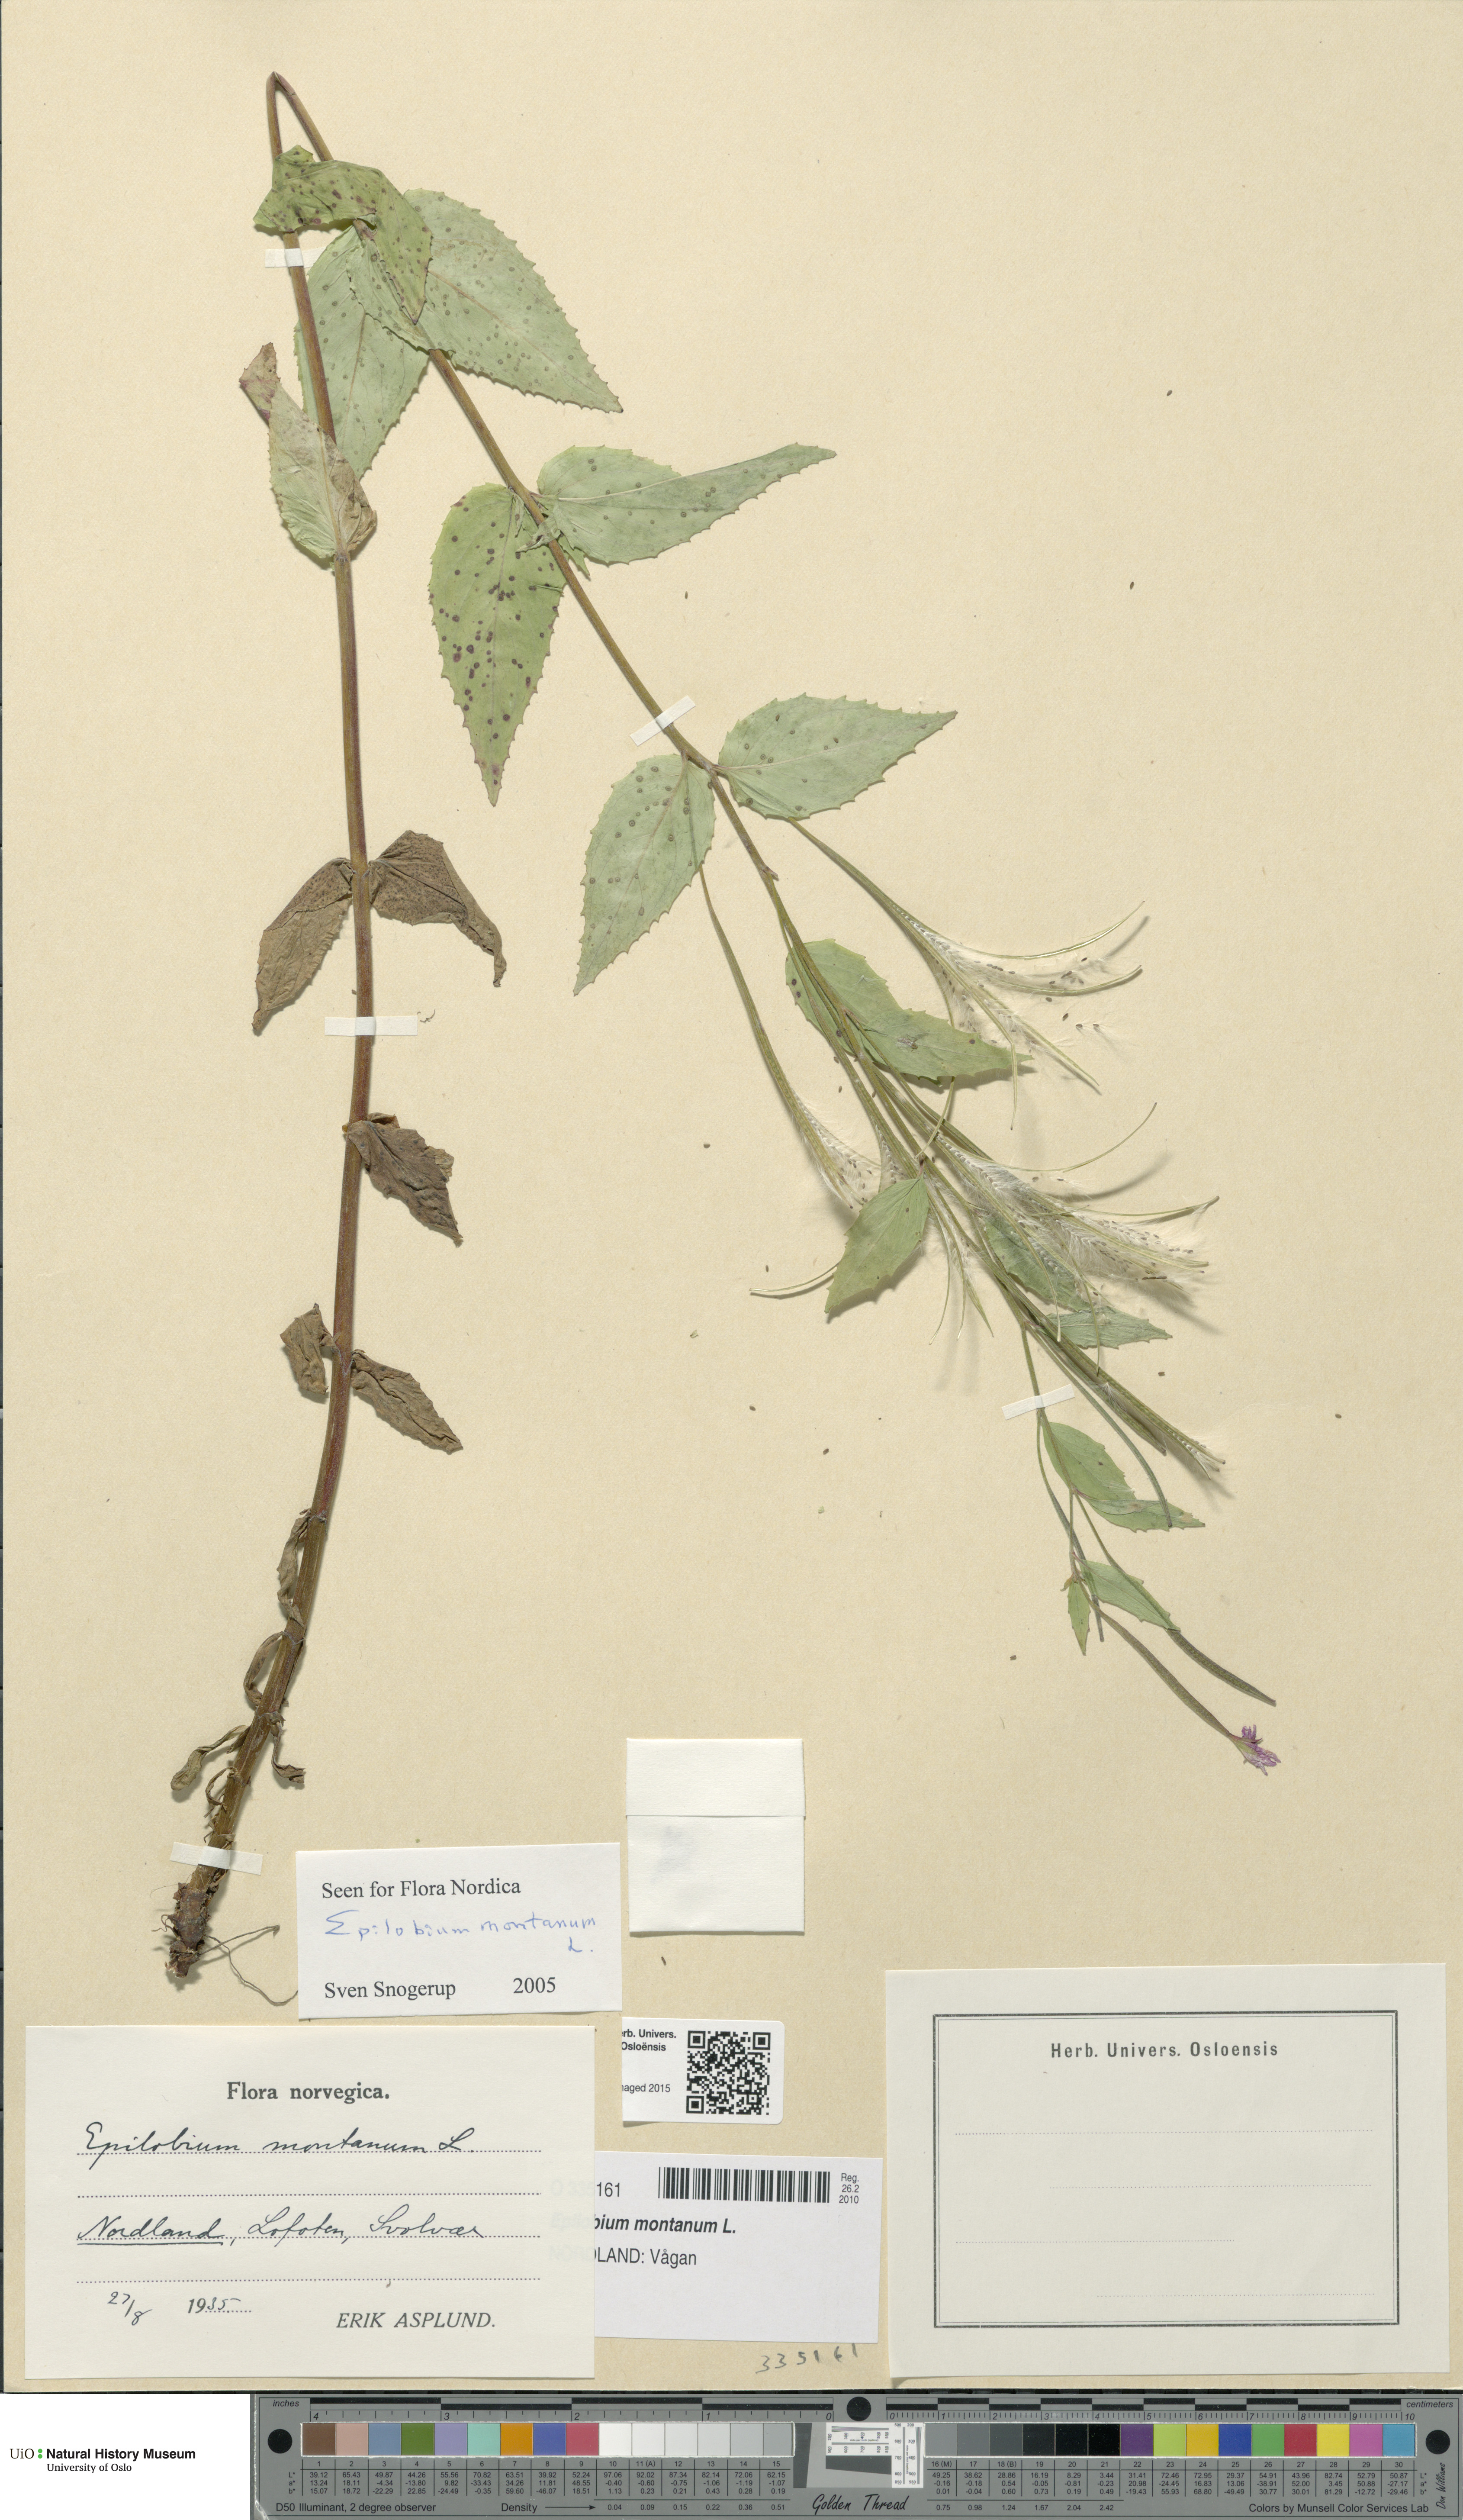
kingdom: Plantae
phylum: Tracheophyta
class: Magnoliopsida
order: Myrtales
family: Onagraceae
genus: Epilobium
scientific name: Epilobium montanum
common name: Broad-leaved willowherb
